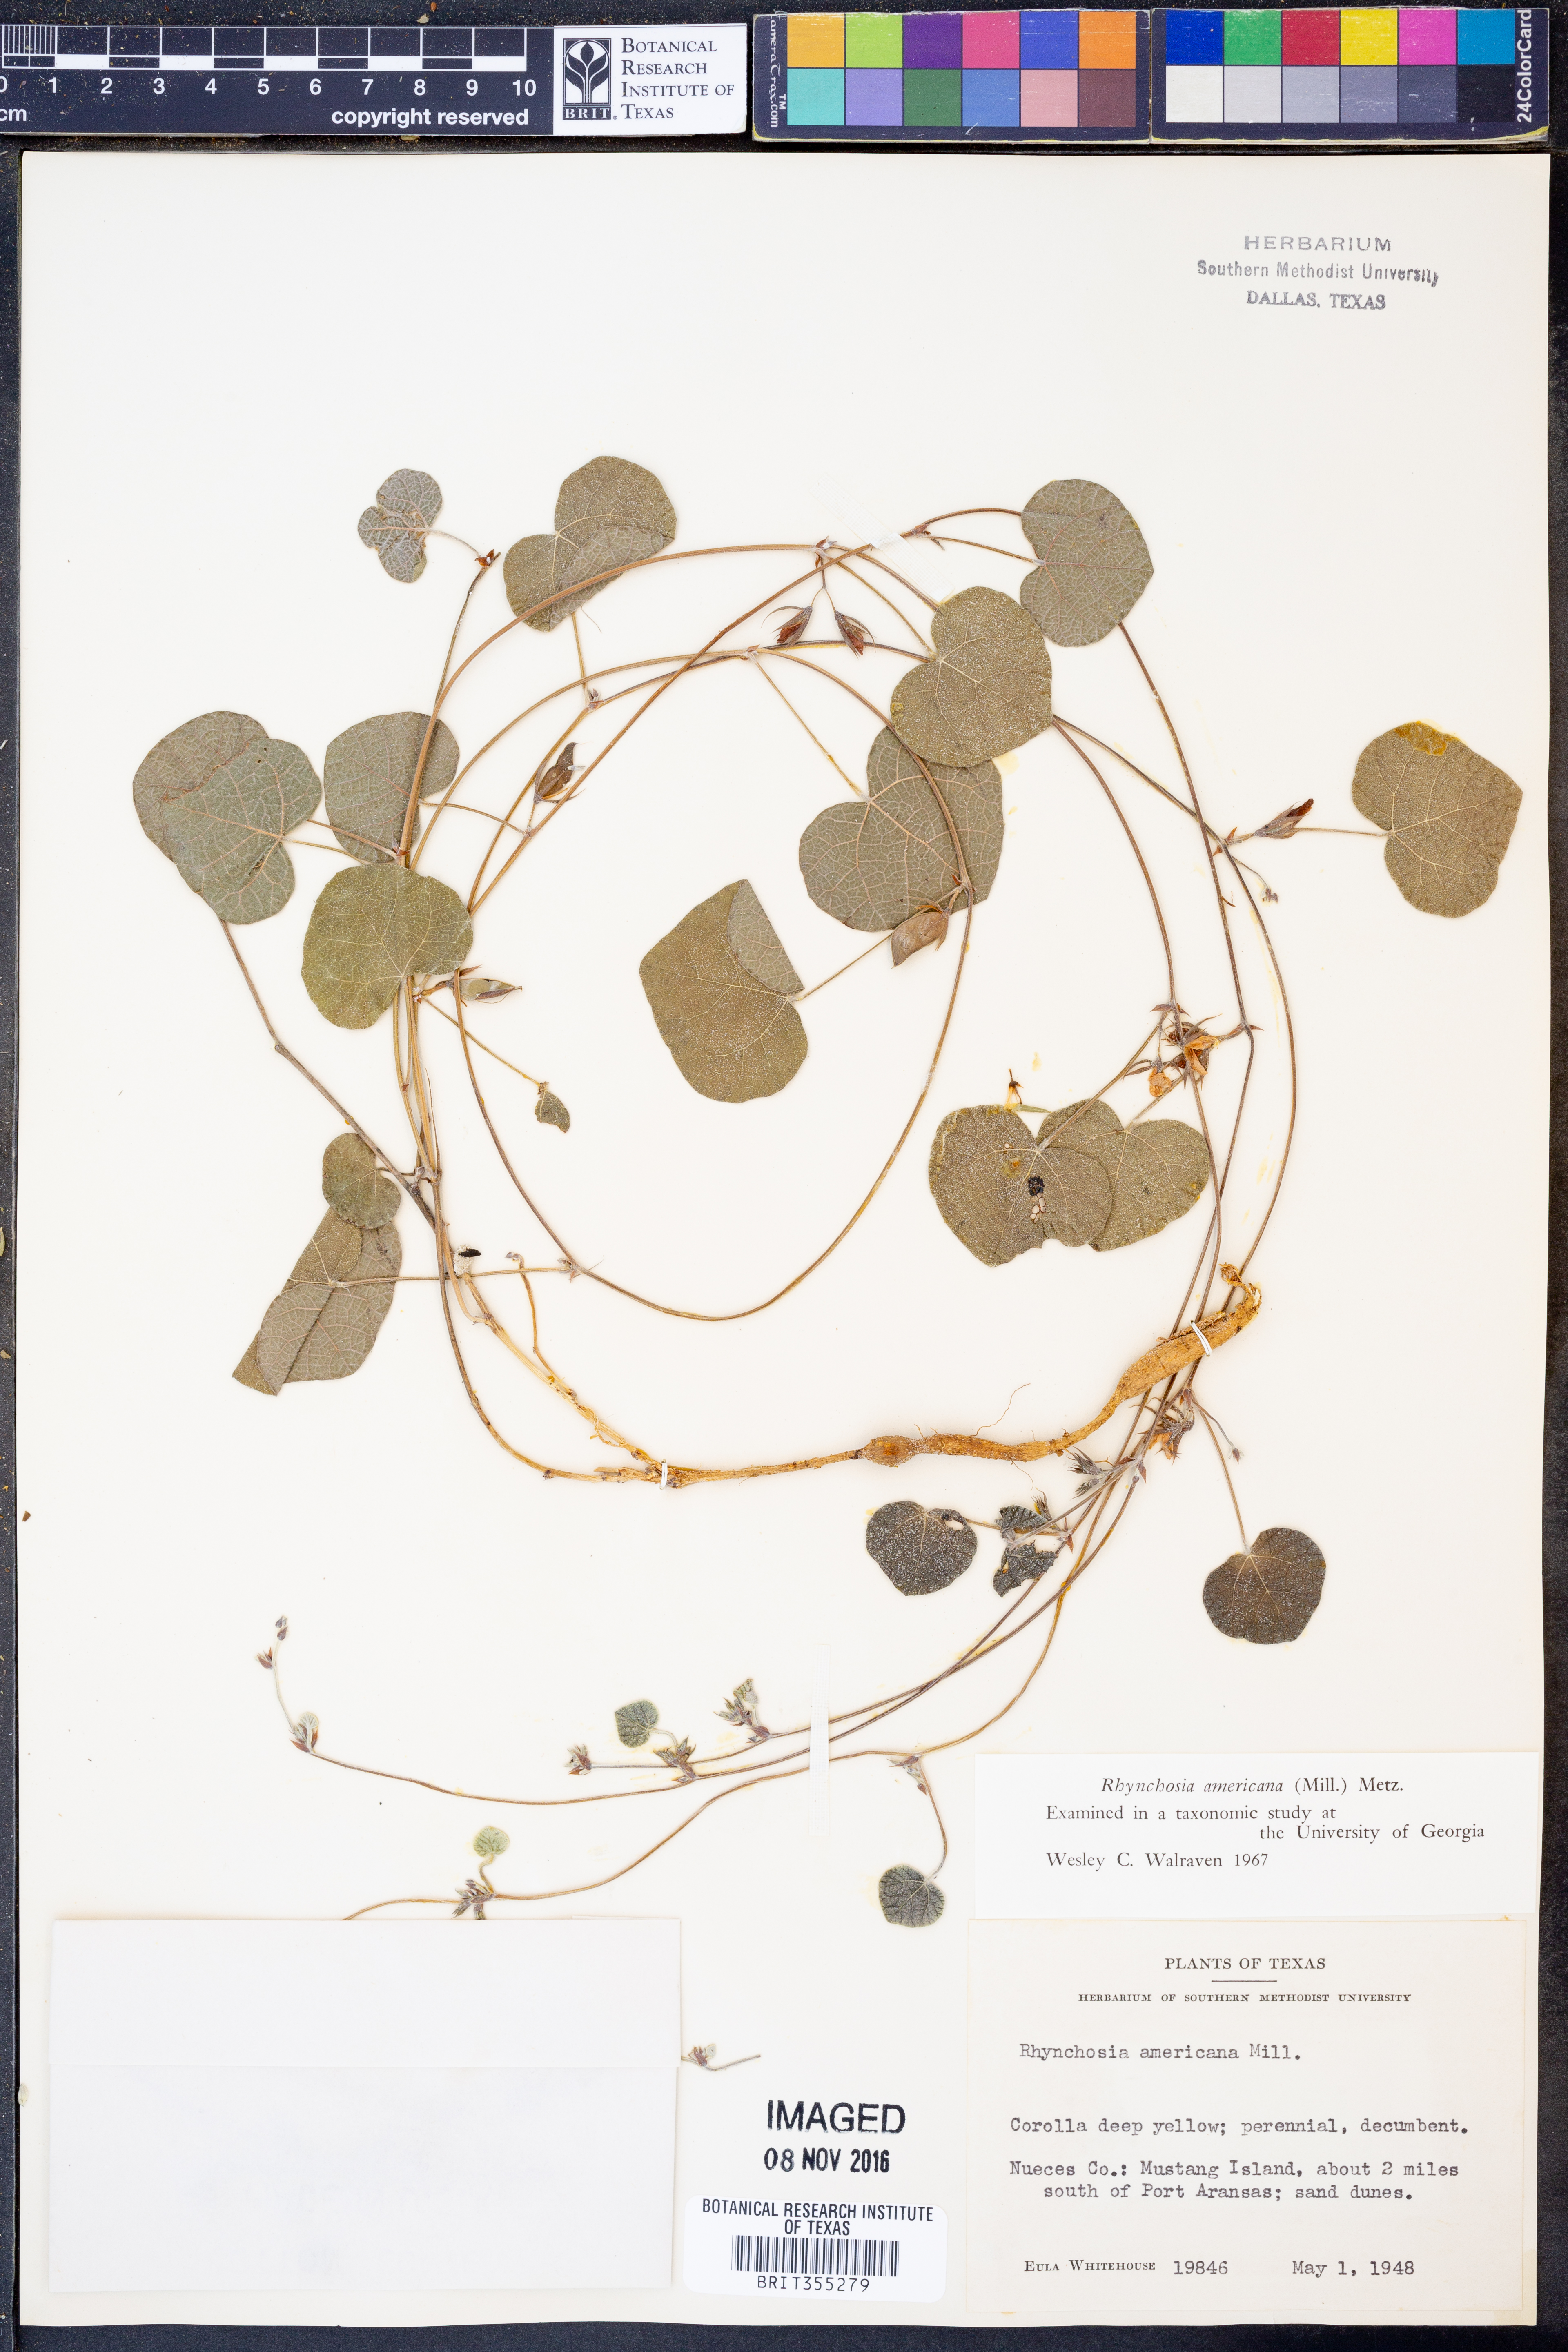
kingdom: Plantae
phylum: Tracheophyta
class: Magnoliopsida
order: Fabales
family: Fabaceae
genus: Rhynchosia
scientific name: Rhynchosia americana
